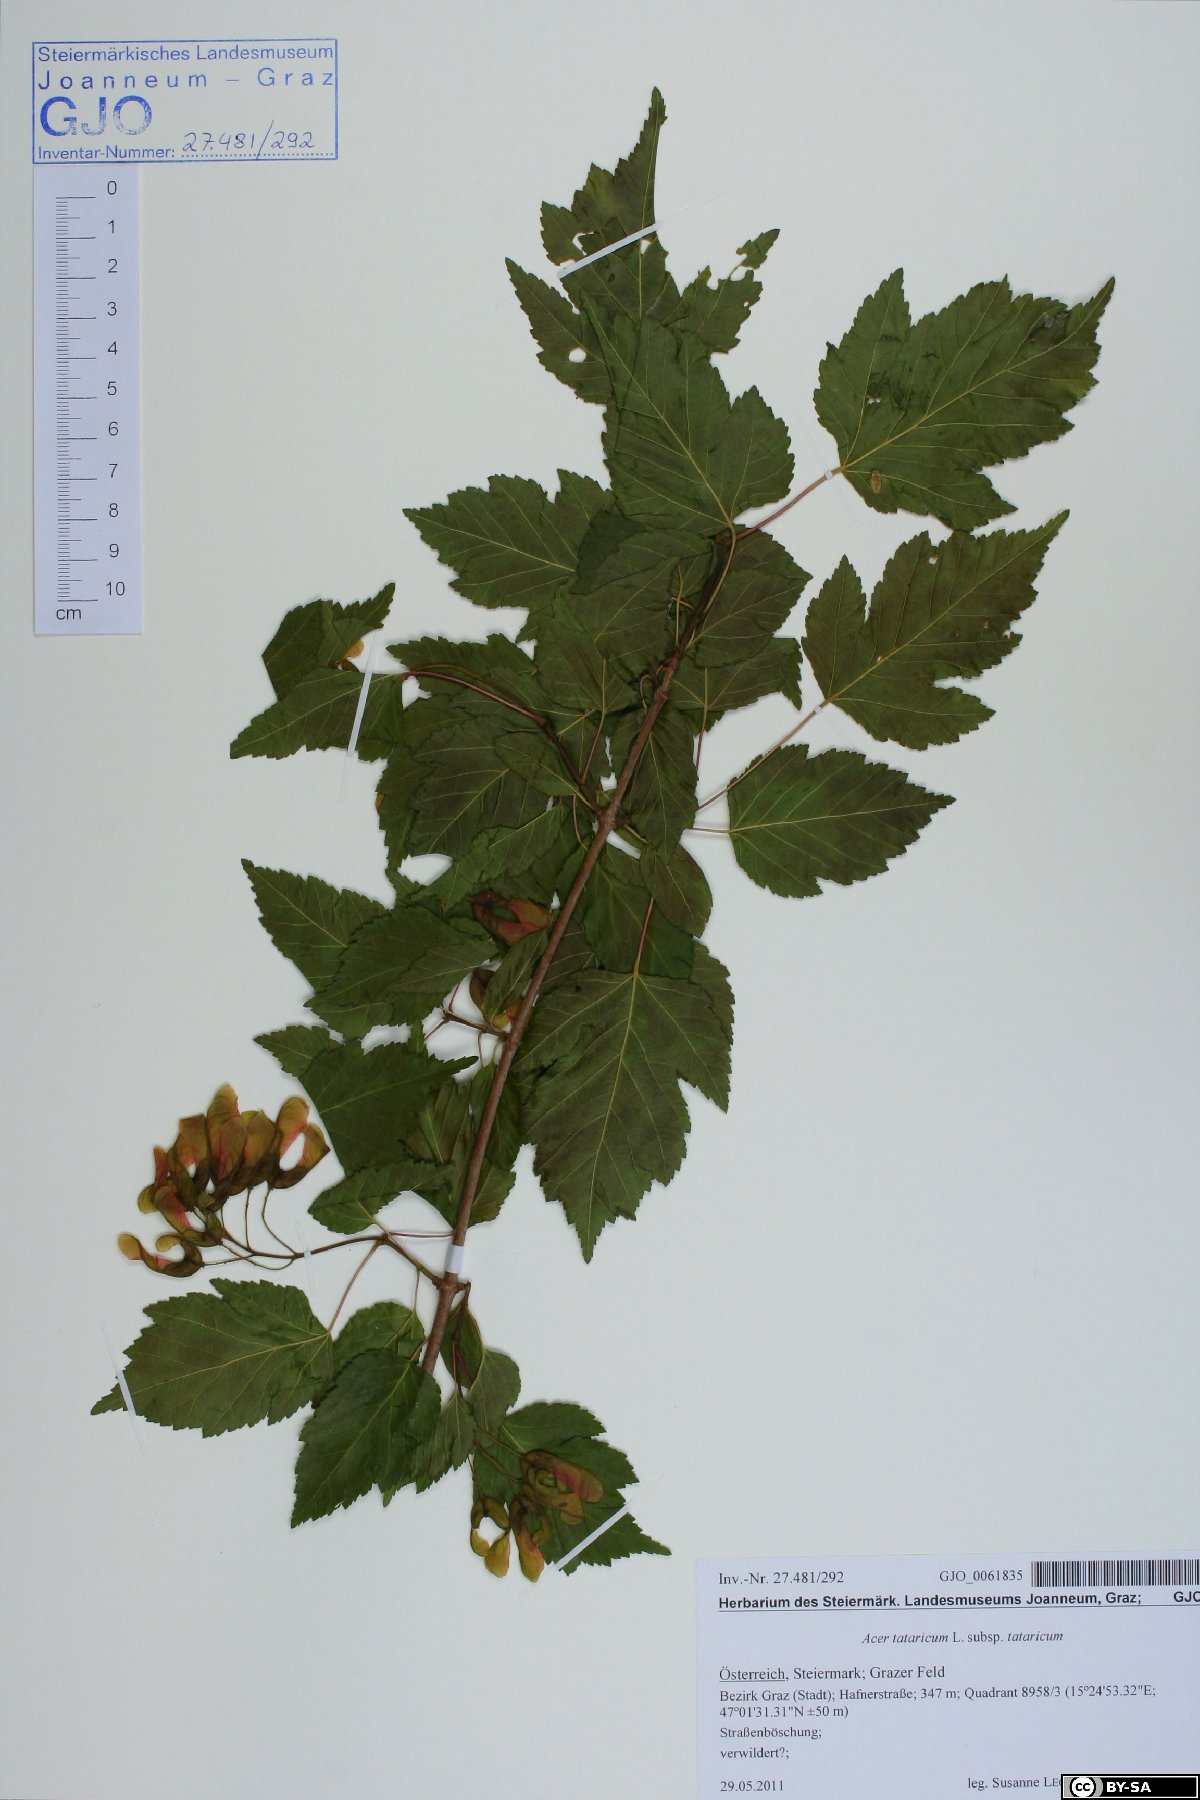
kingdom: Plantae
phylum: Tracheophyta
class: Magnoliopsida
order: Sapindales
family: Sapindaceae
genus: Acer
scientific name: Acer tataricum
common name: Tartar maple
